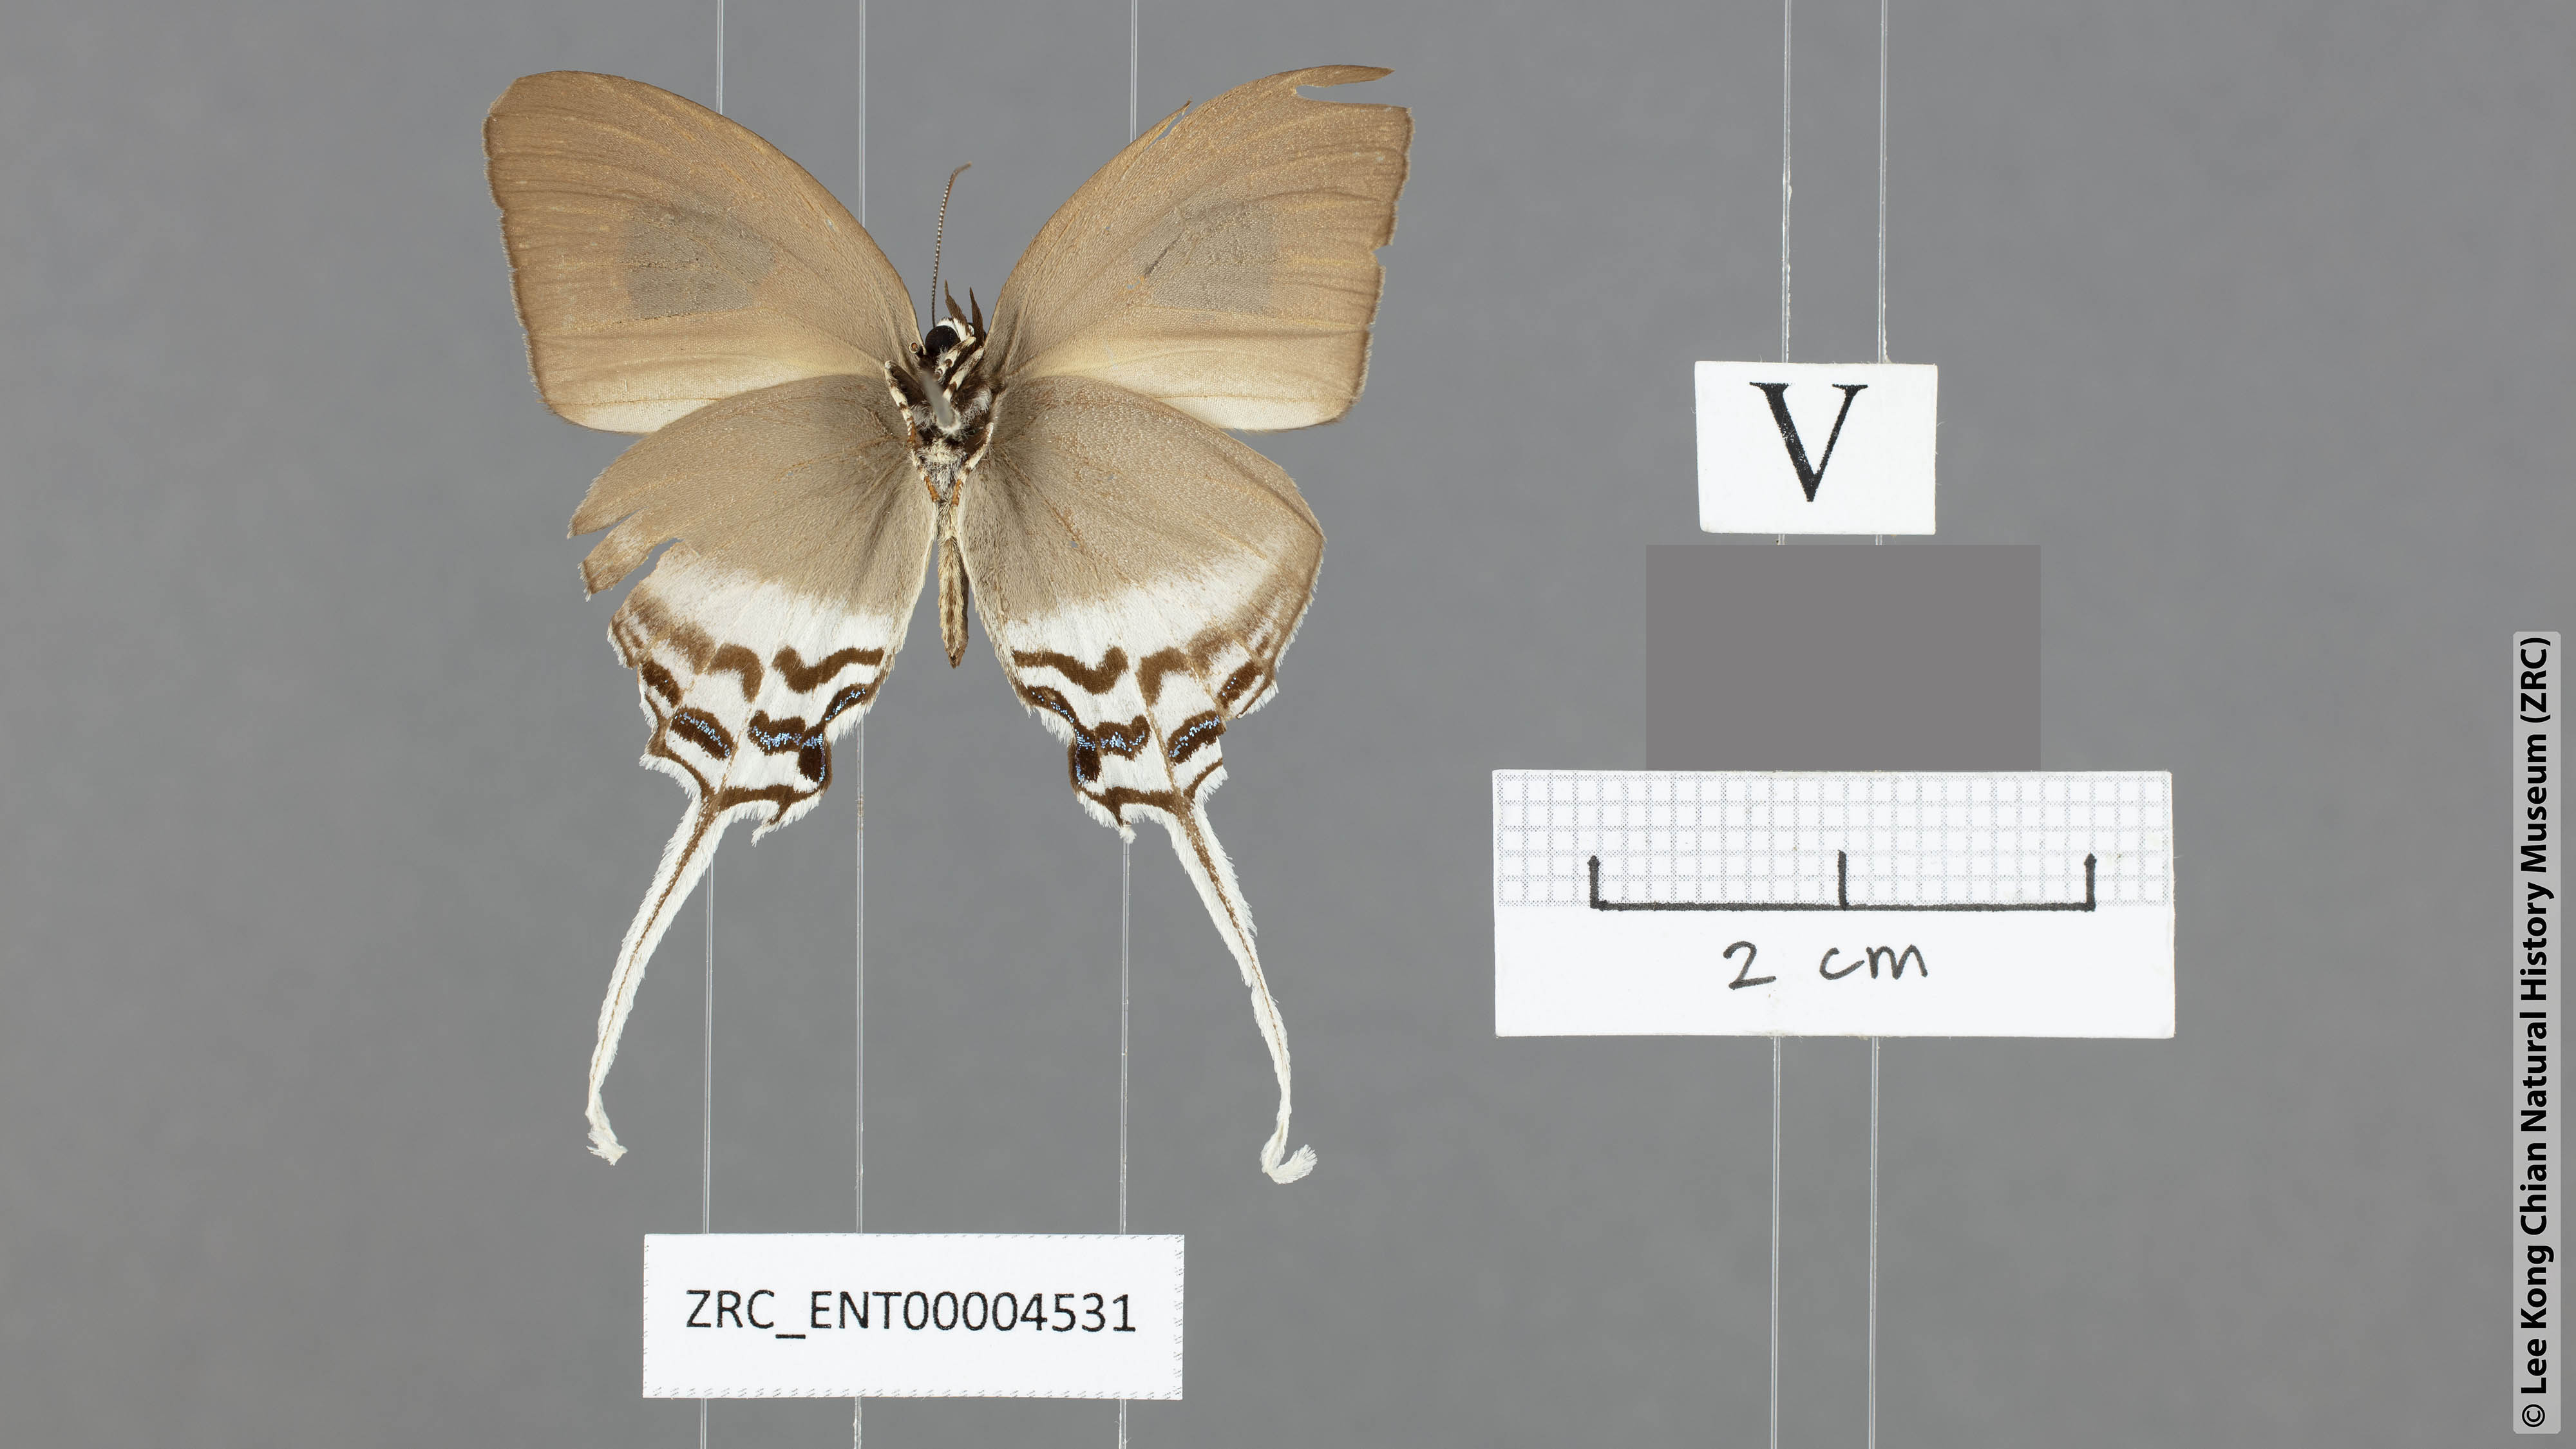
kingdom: Animalia
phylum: Arthropoda
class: Insecta
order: Lepidoptera
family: Lycaenidae
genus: Ritra
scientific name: Ritra aurea
